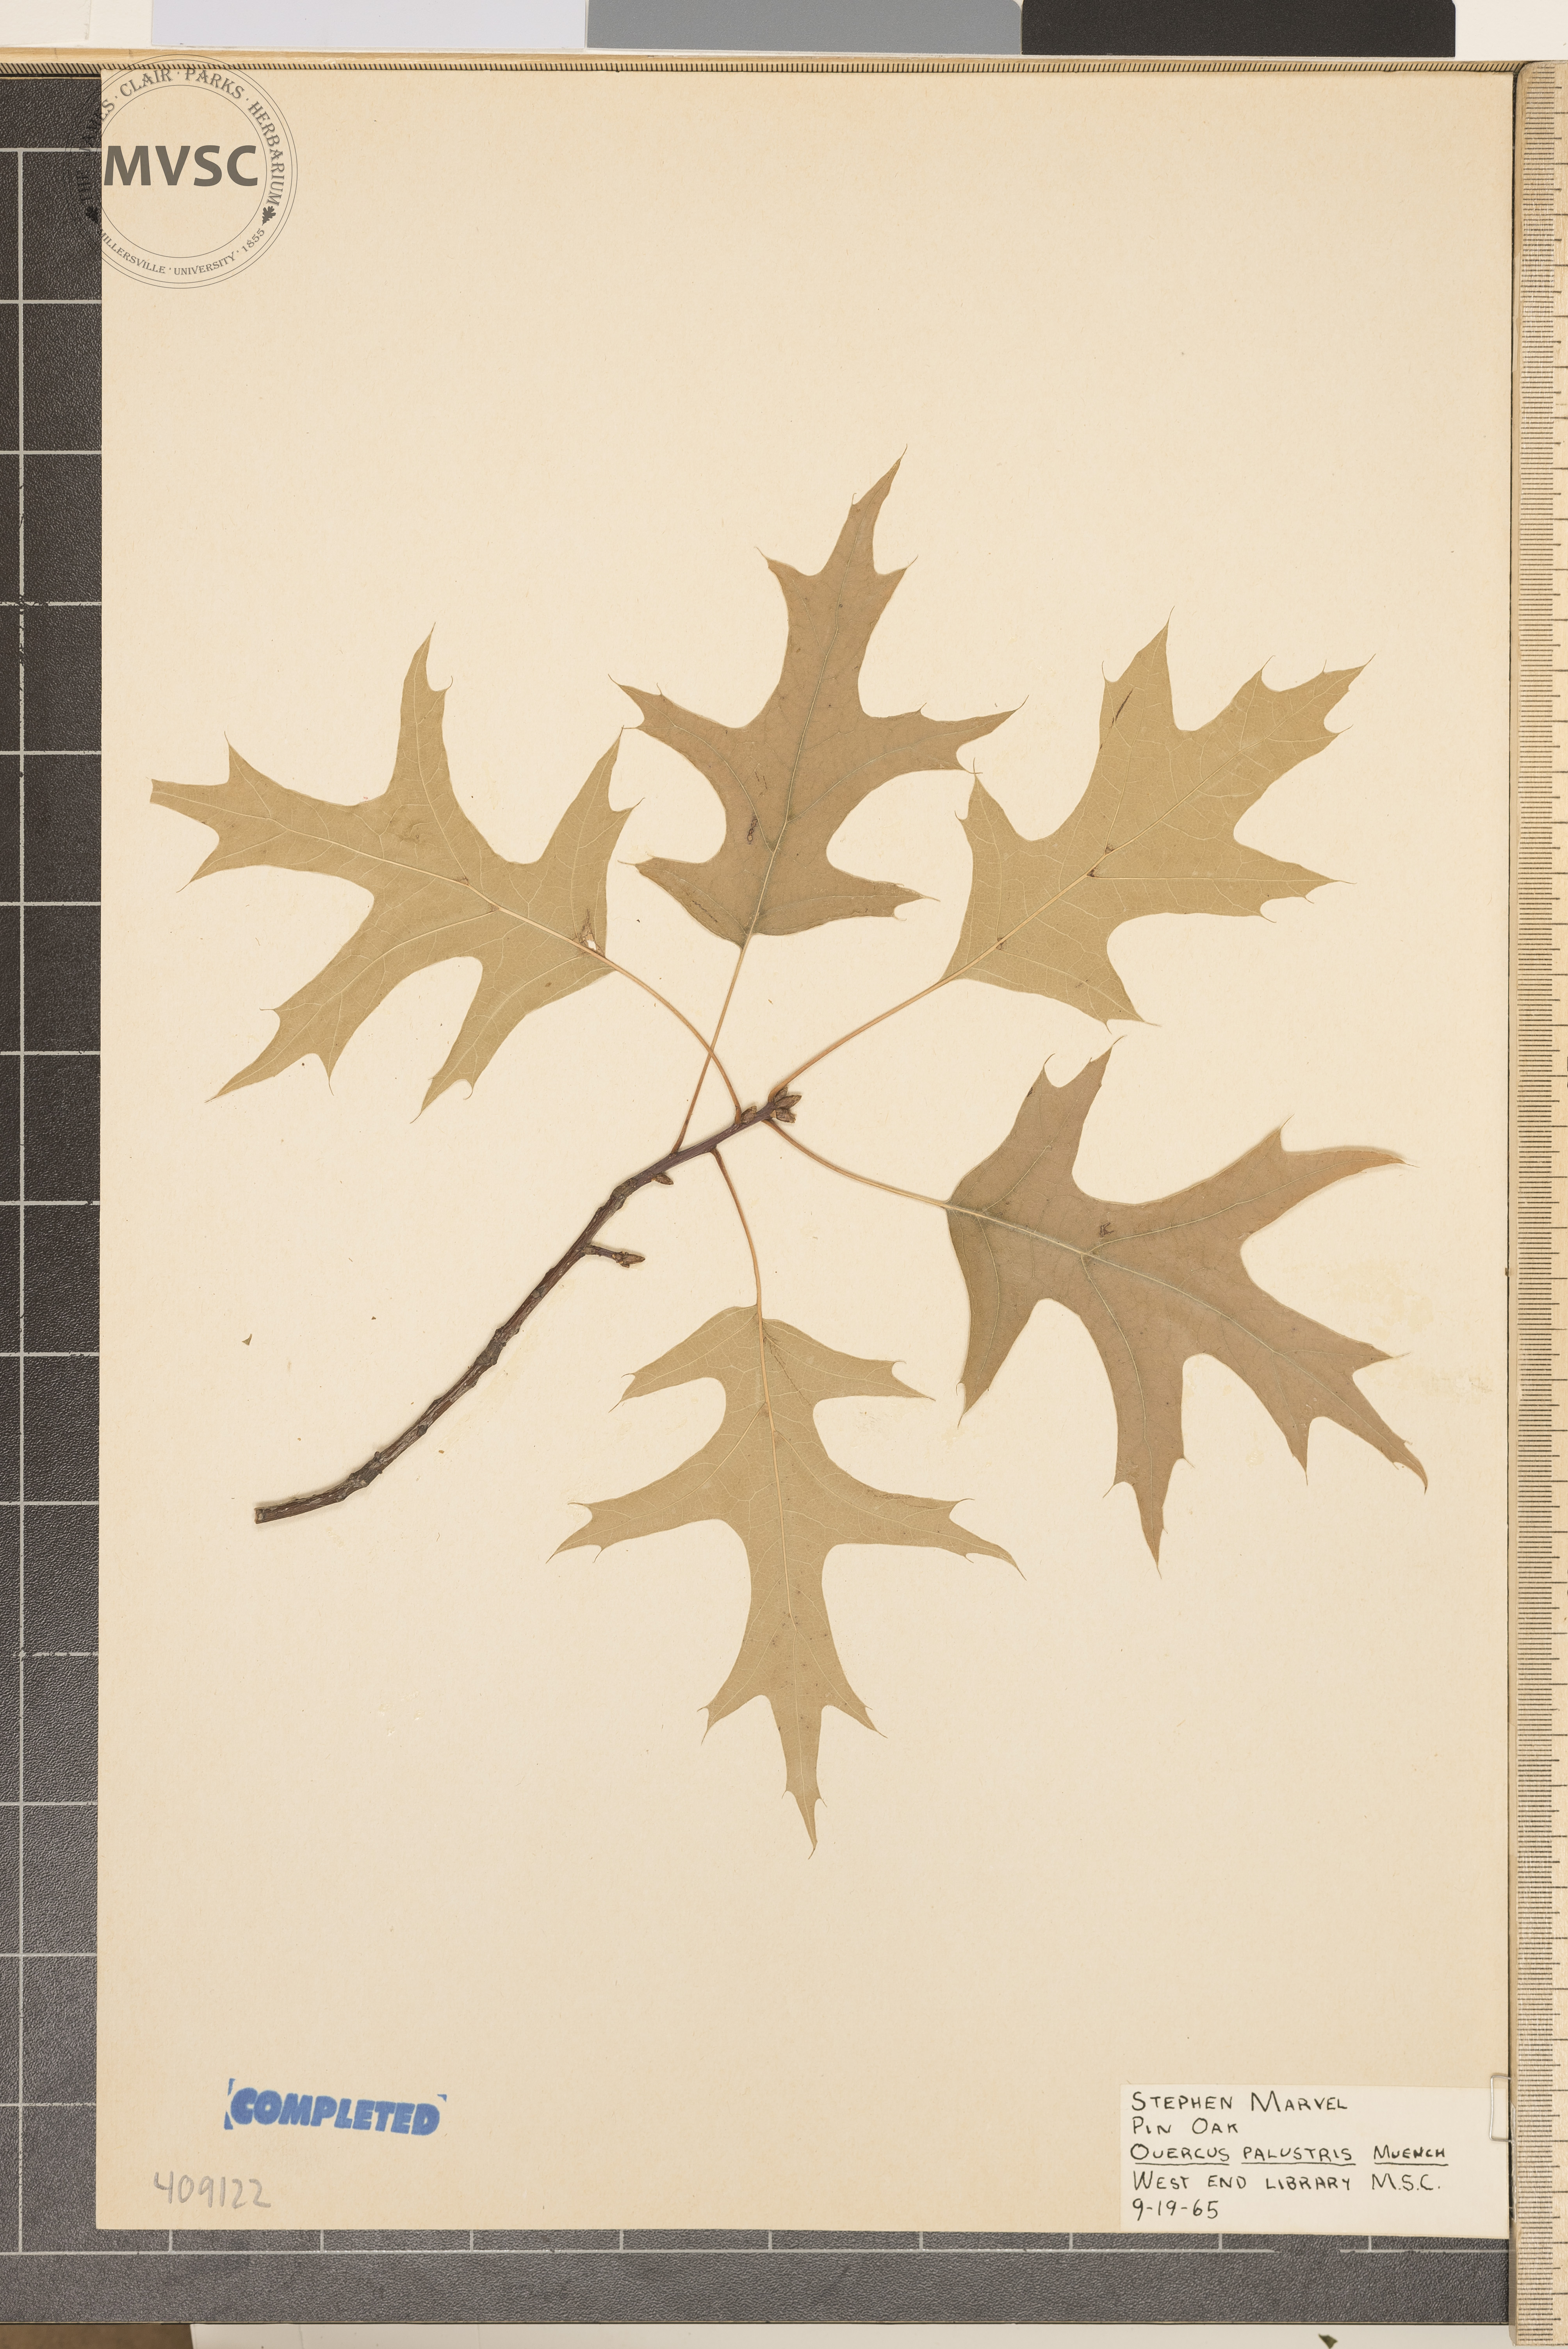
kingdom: Plantae
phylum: Tracheophyta
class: Magnoliopsida
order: Fagales
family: Fagaceae
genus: Quercus
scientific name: Quercus palustris
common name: Pin oak
